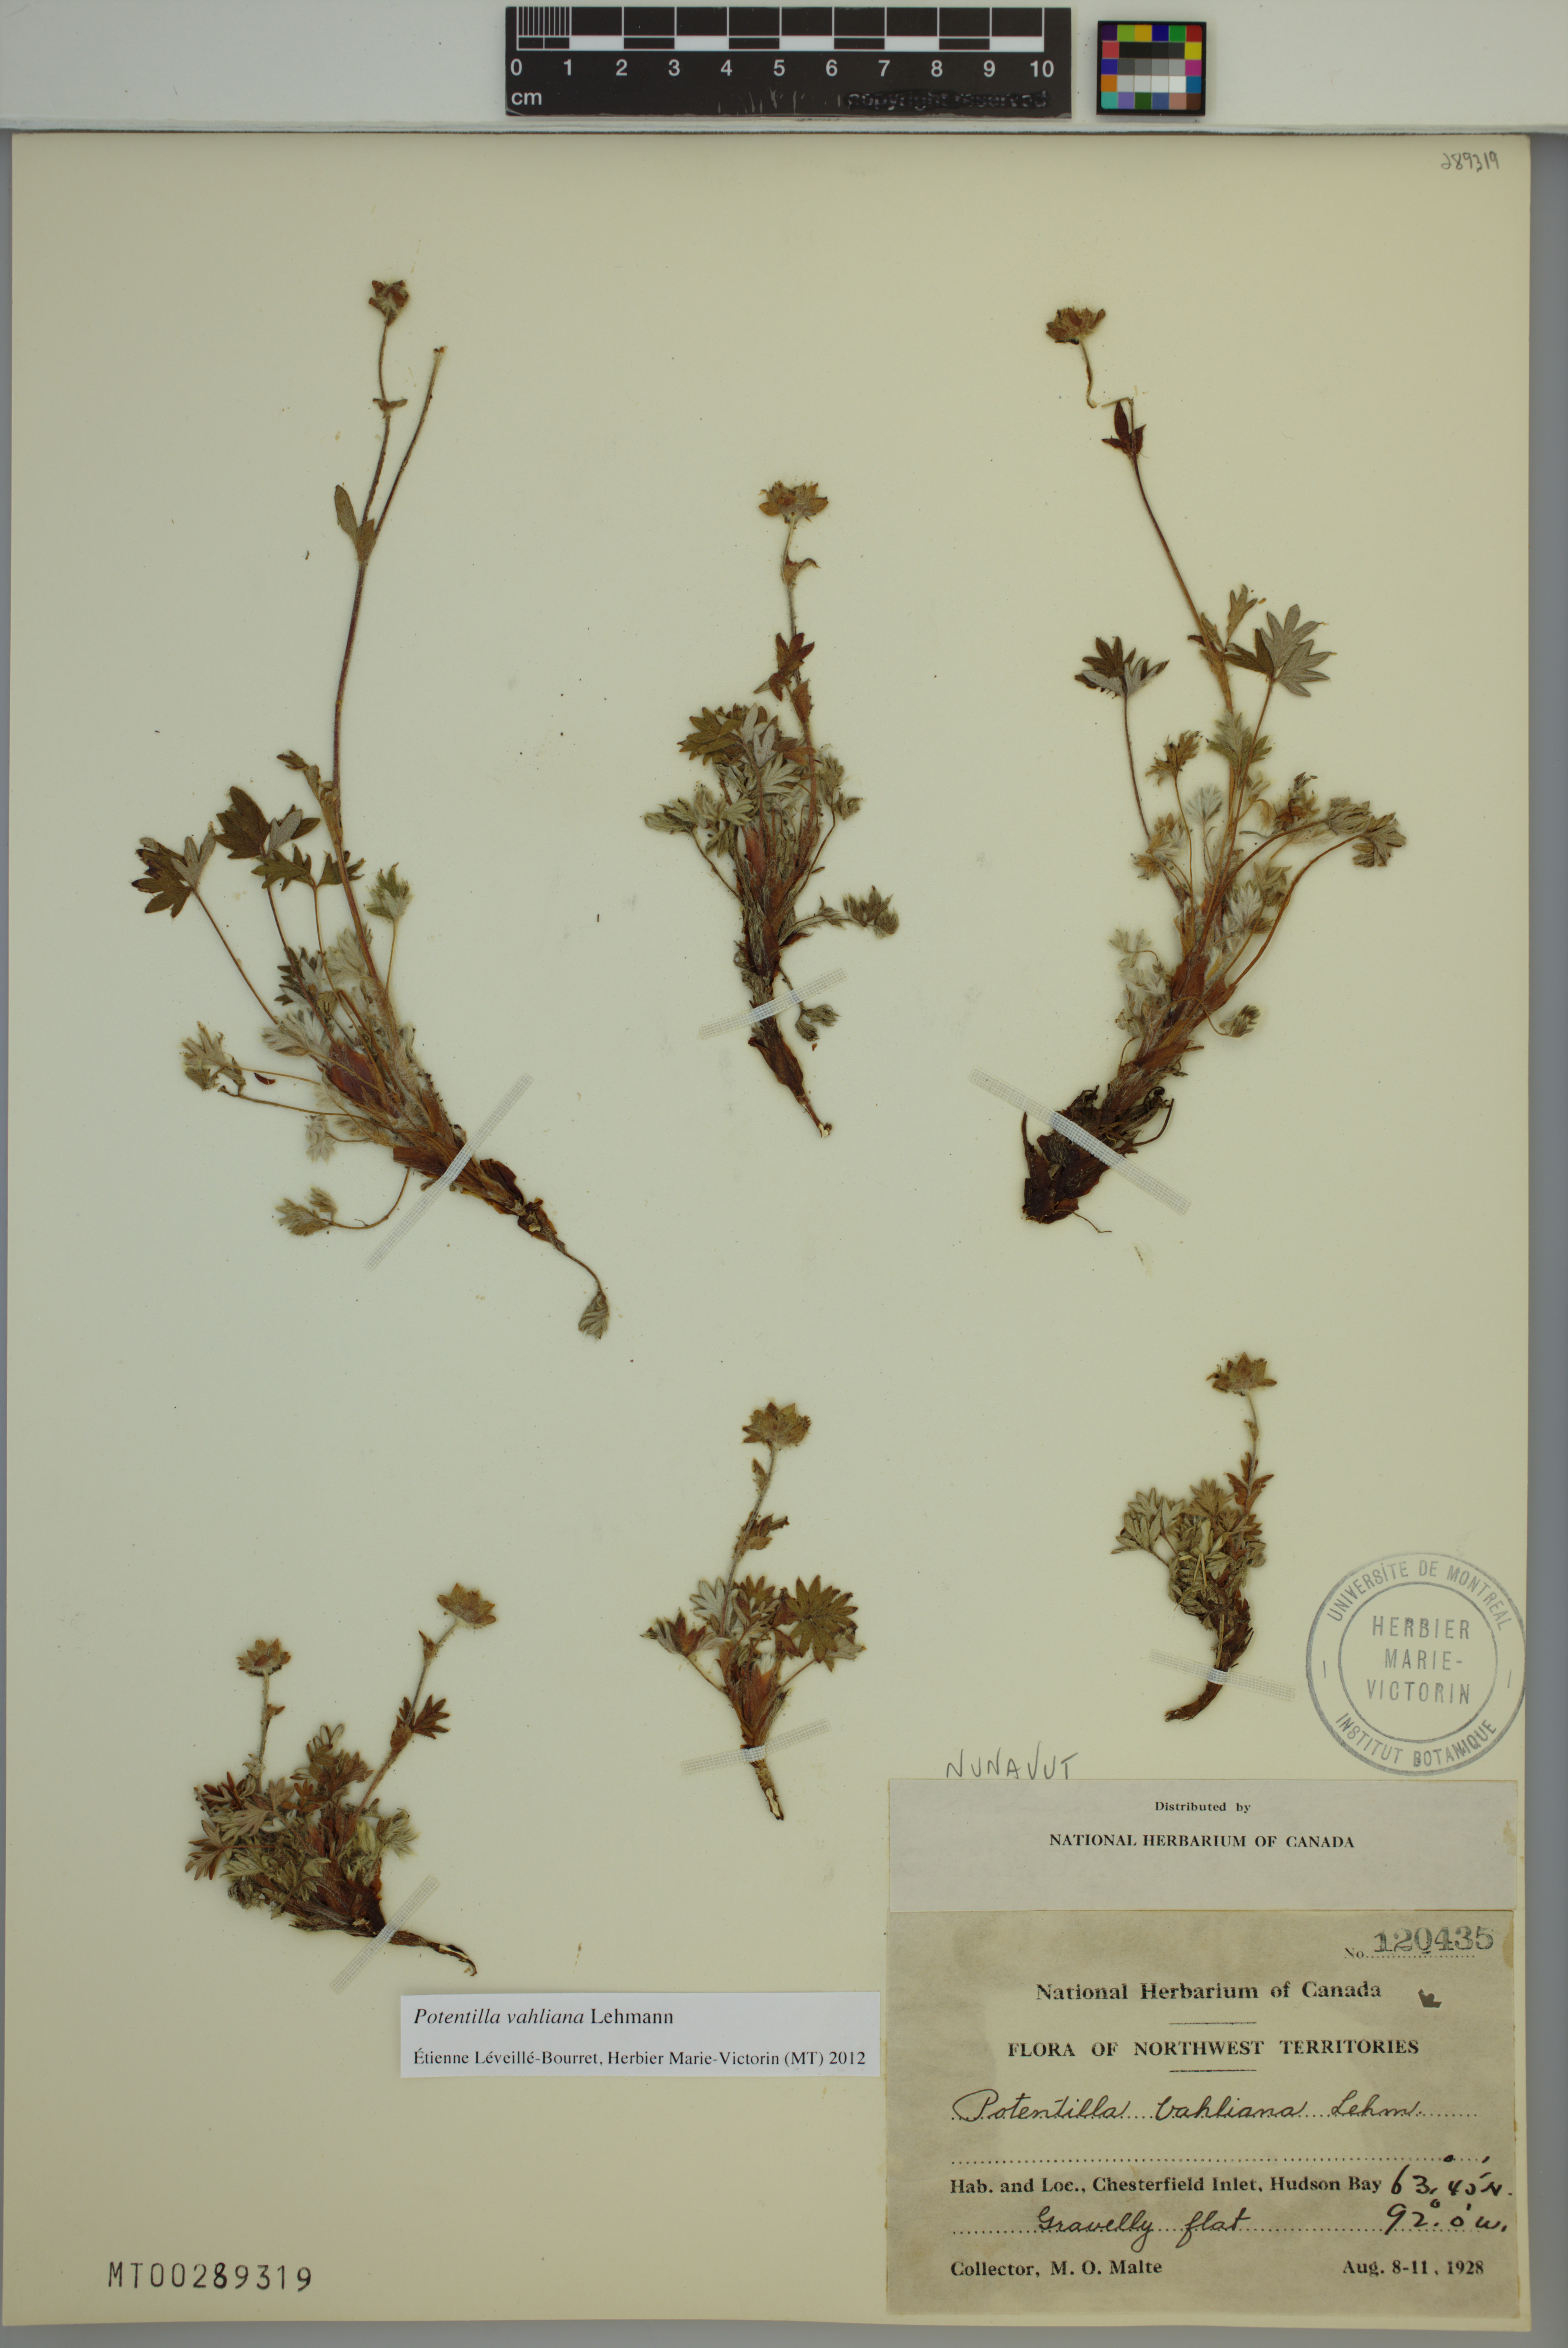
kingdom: Plantae
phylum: Tracheophyta
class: Magnoliopsida
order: Rosales
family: Rosaceae
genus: Potentilla
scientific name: Potentilla vahliana
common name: Vahl's cinquefoil
